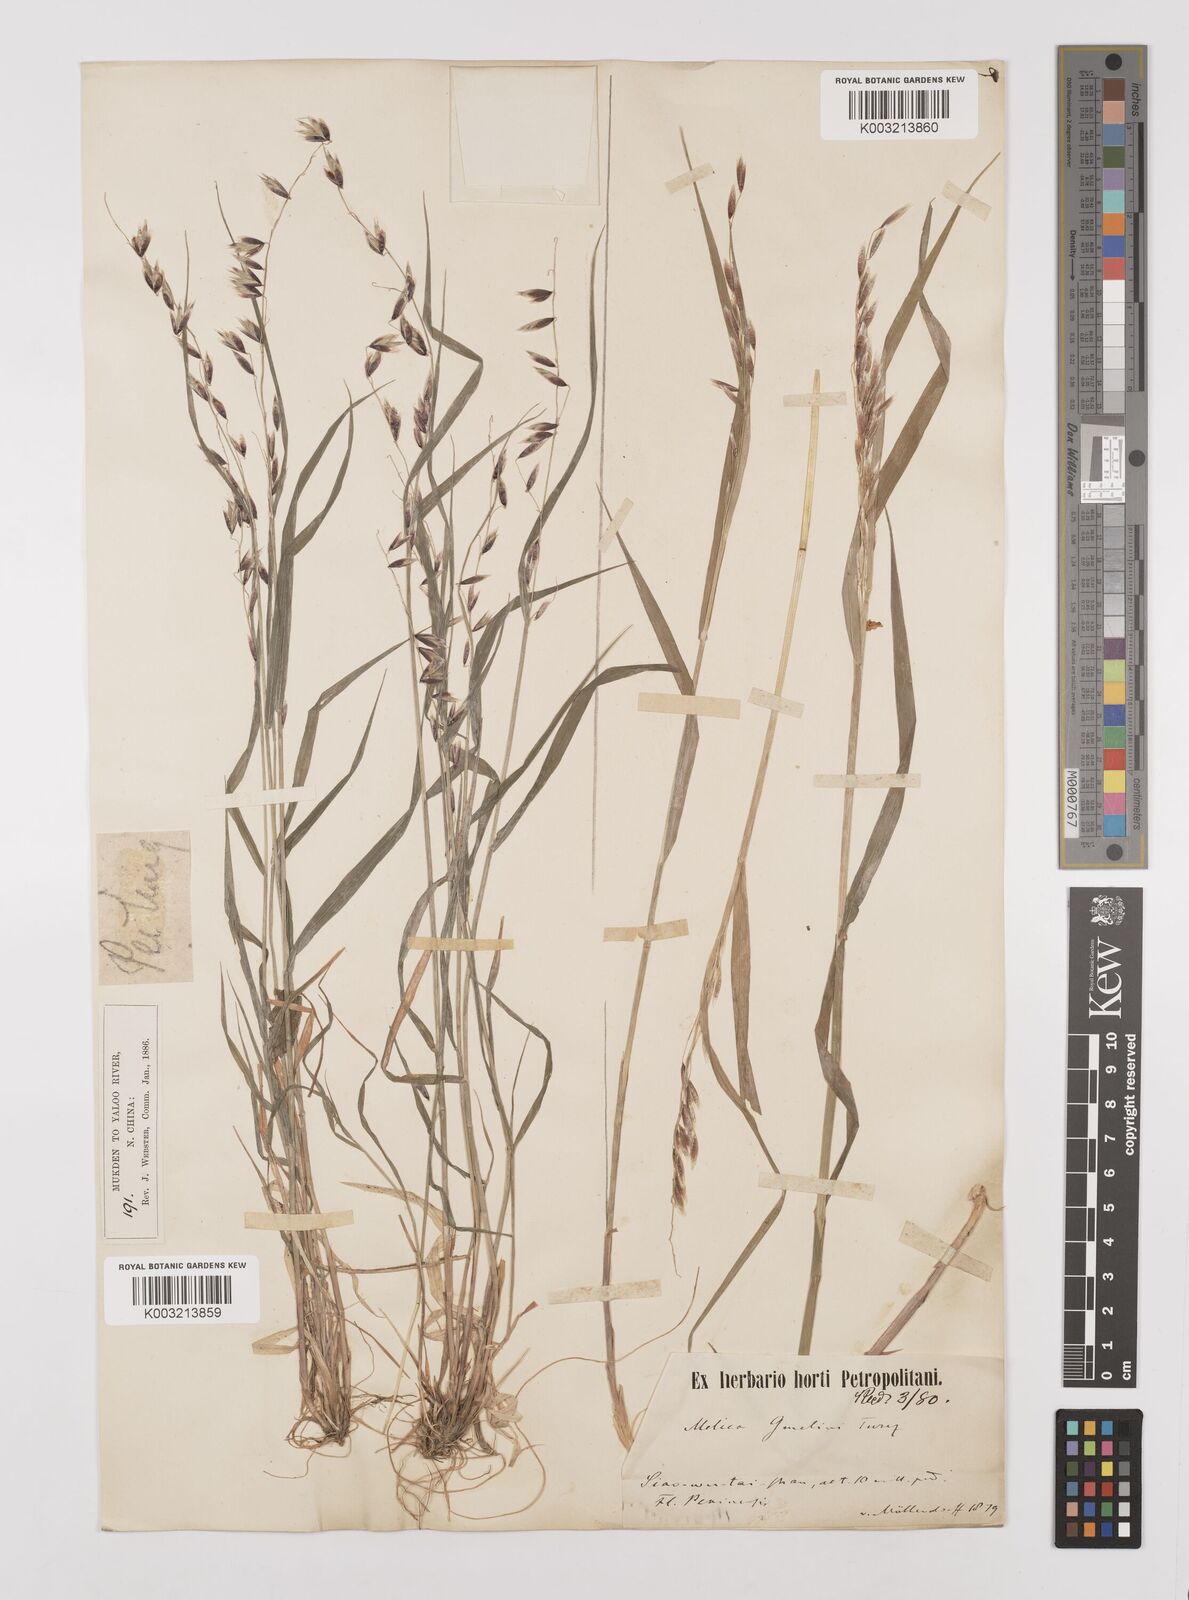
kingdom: Plantae
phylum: Tracheophyta
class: Liliopsida
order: Poales
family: Poaceae
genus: Melica
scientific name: Melica turczaninowiana
